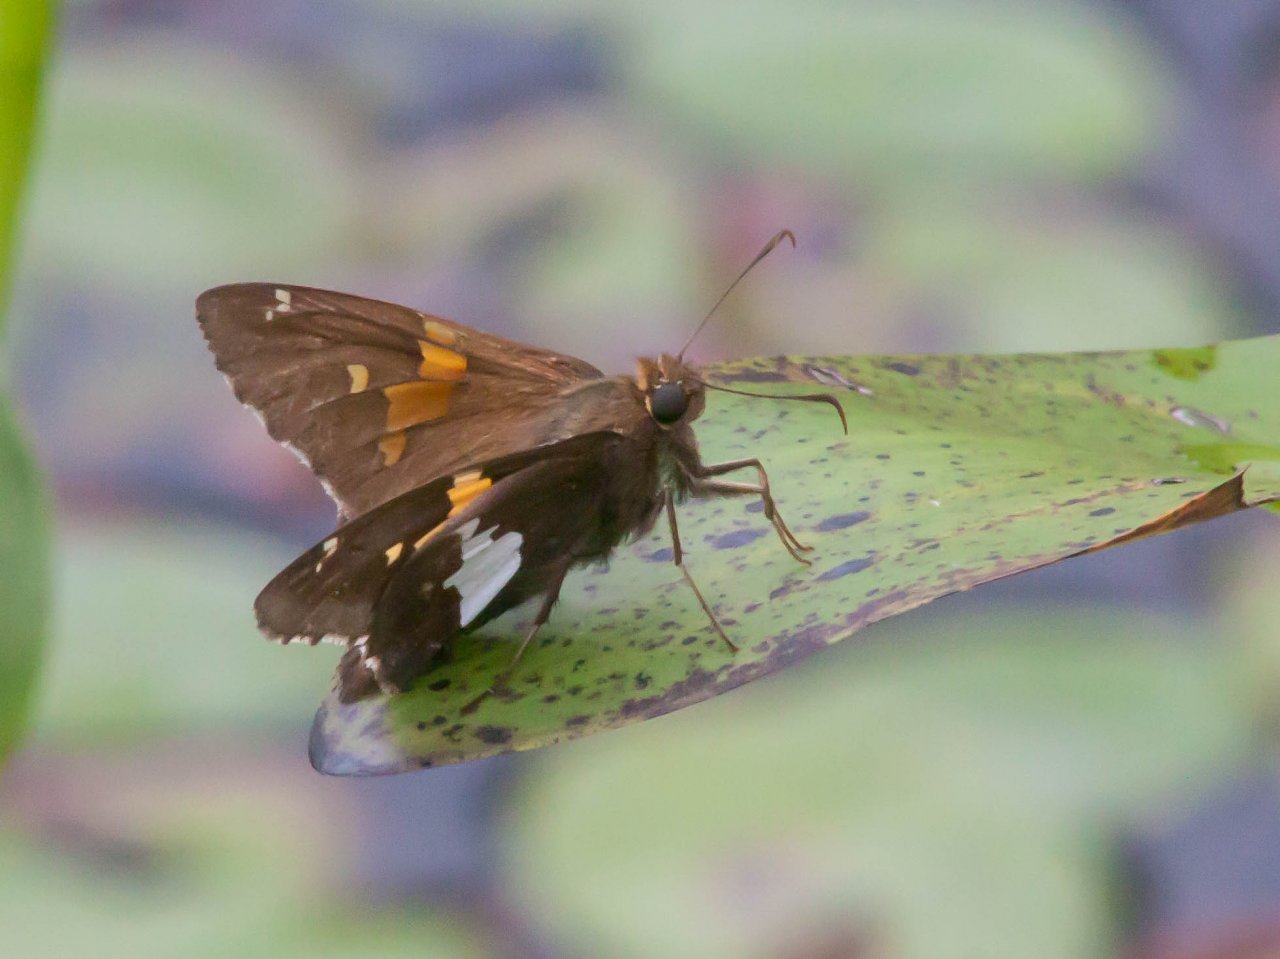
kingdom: Animalia
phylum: Arthropoda
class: Insecta
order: Lepidoptera
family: Hesperiidae
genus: Epargyreus
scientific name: Epargyreus clarus
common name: Silver-spotted Skipper
